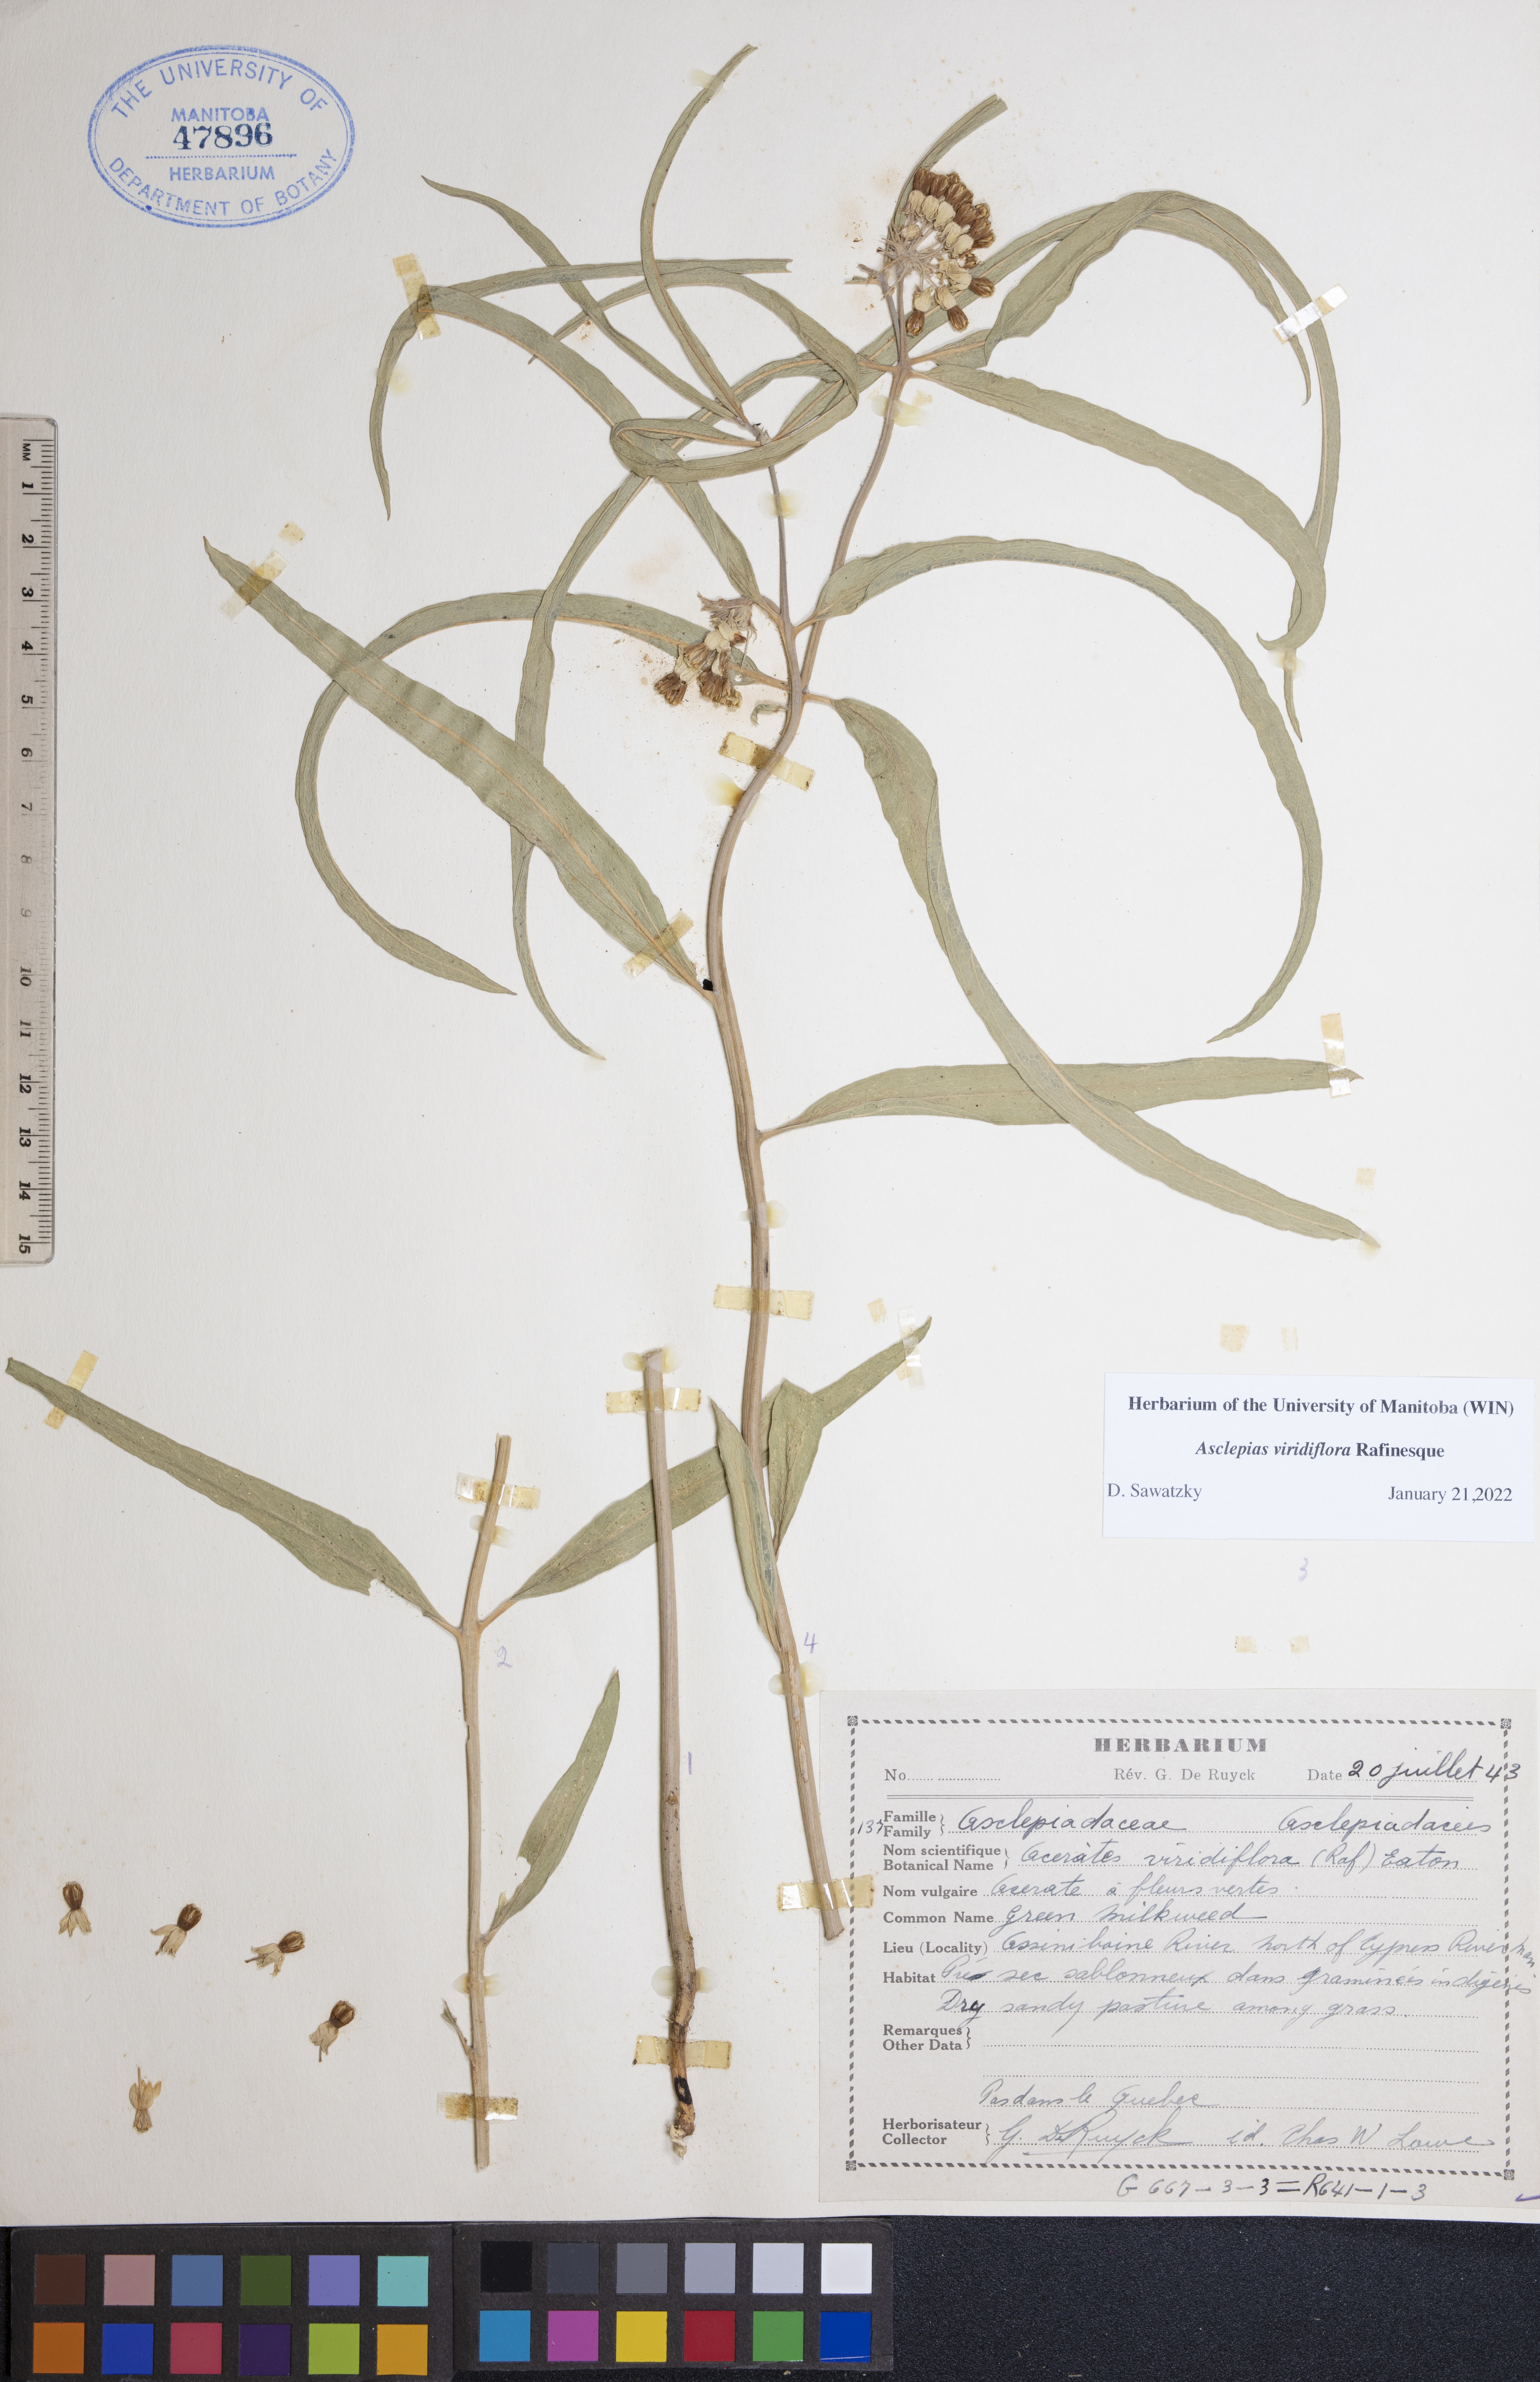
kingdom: Plantae
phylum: Tracheophyta
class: Magnoliopsida
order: Gentianales
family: Apocynaceae
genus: Asclepias
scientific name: Asclepias viridiflora
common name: Green comet milkweed
